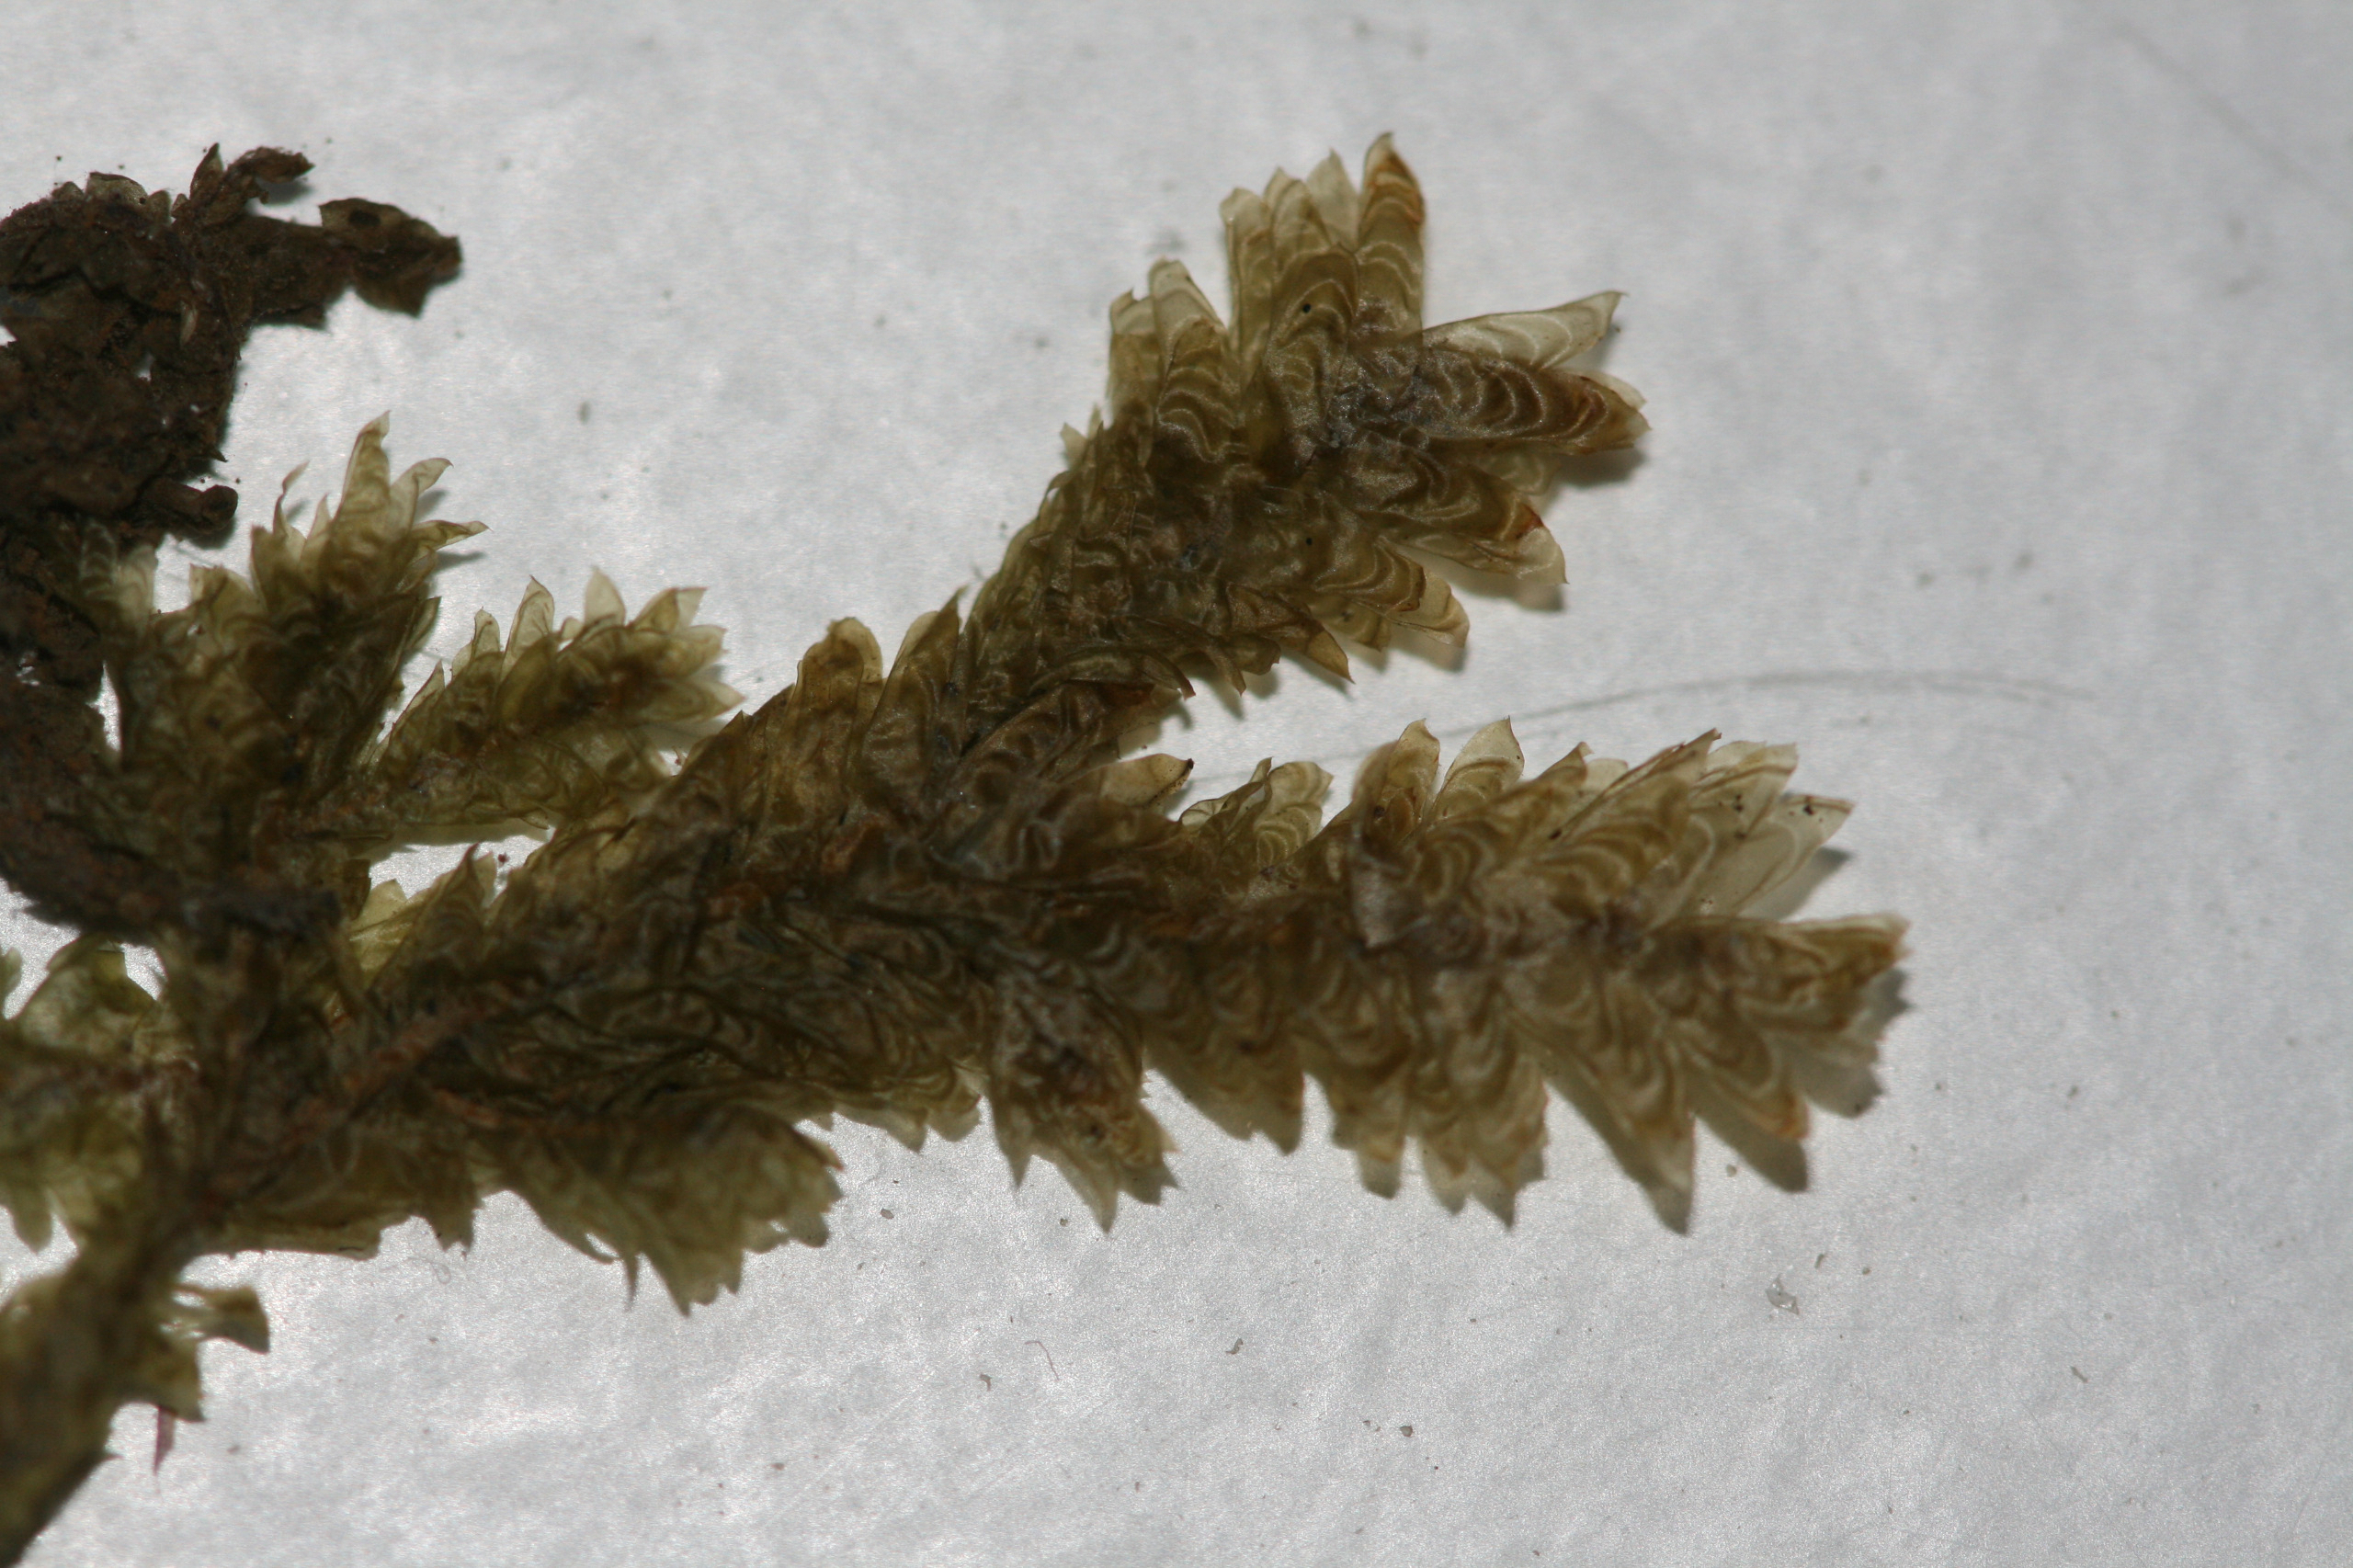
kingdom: Plantae
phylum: Bryophyta
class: Bryopsida
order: Hypnales
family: Neckeraceae
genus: Exsertotheca
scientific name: Exsertotheca crispa
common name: Kruset fladmos
